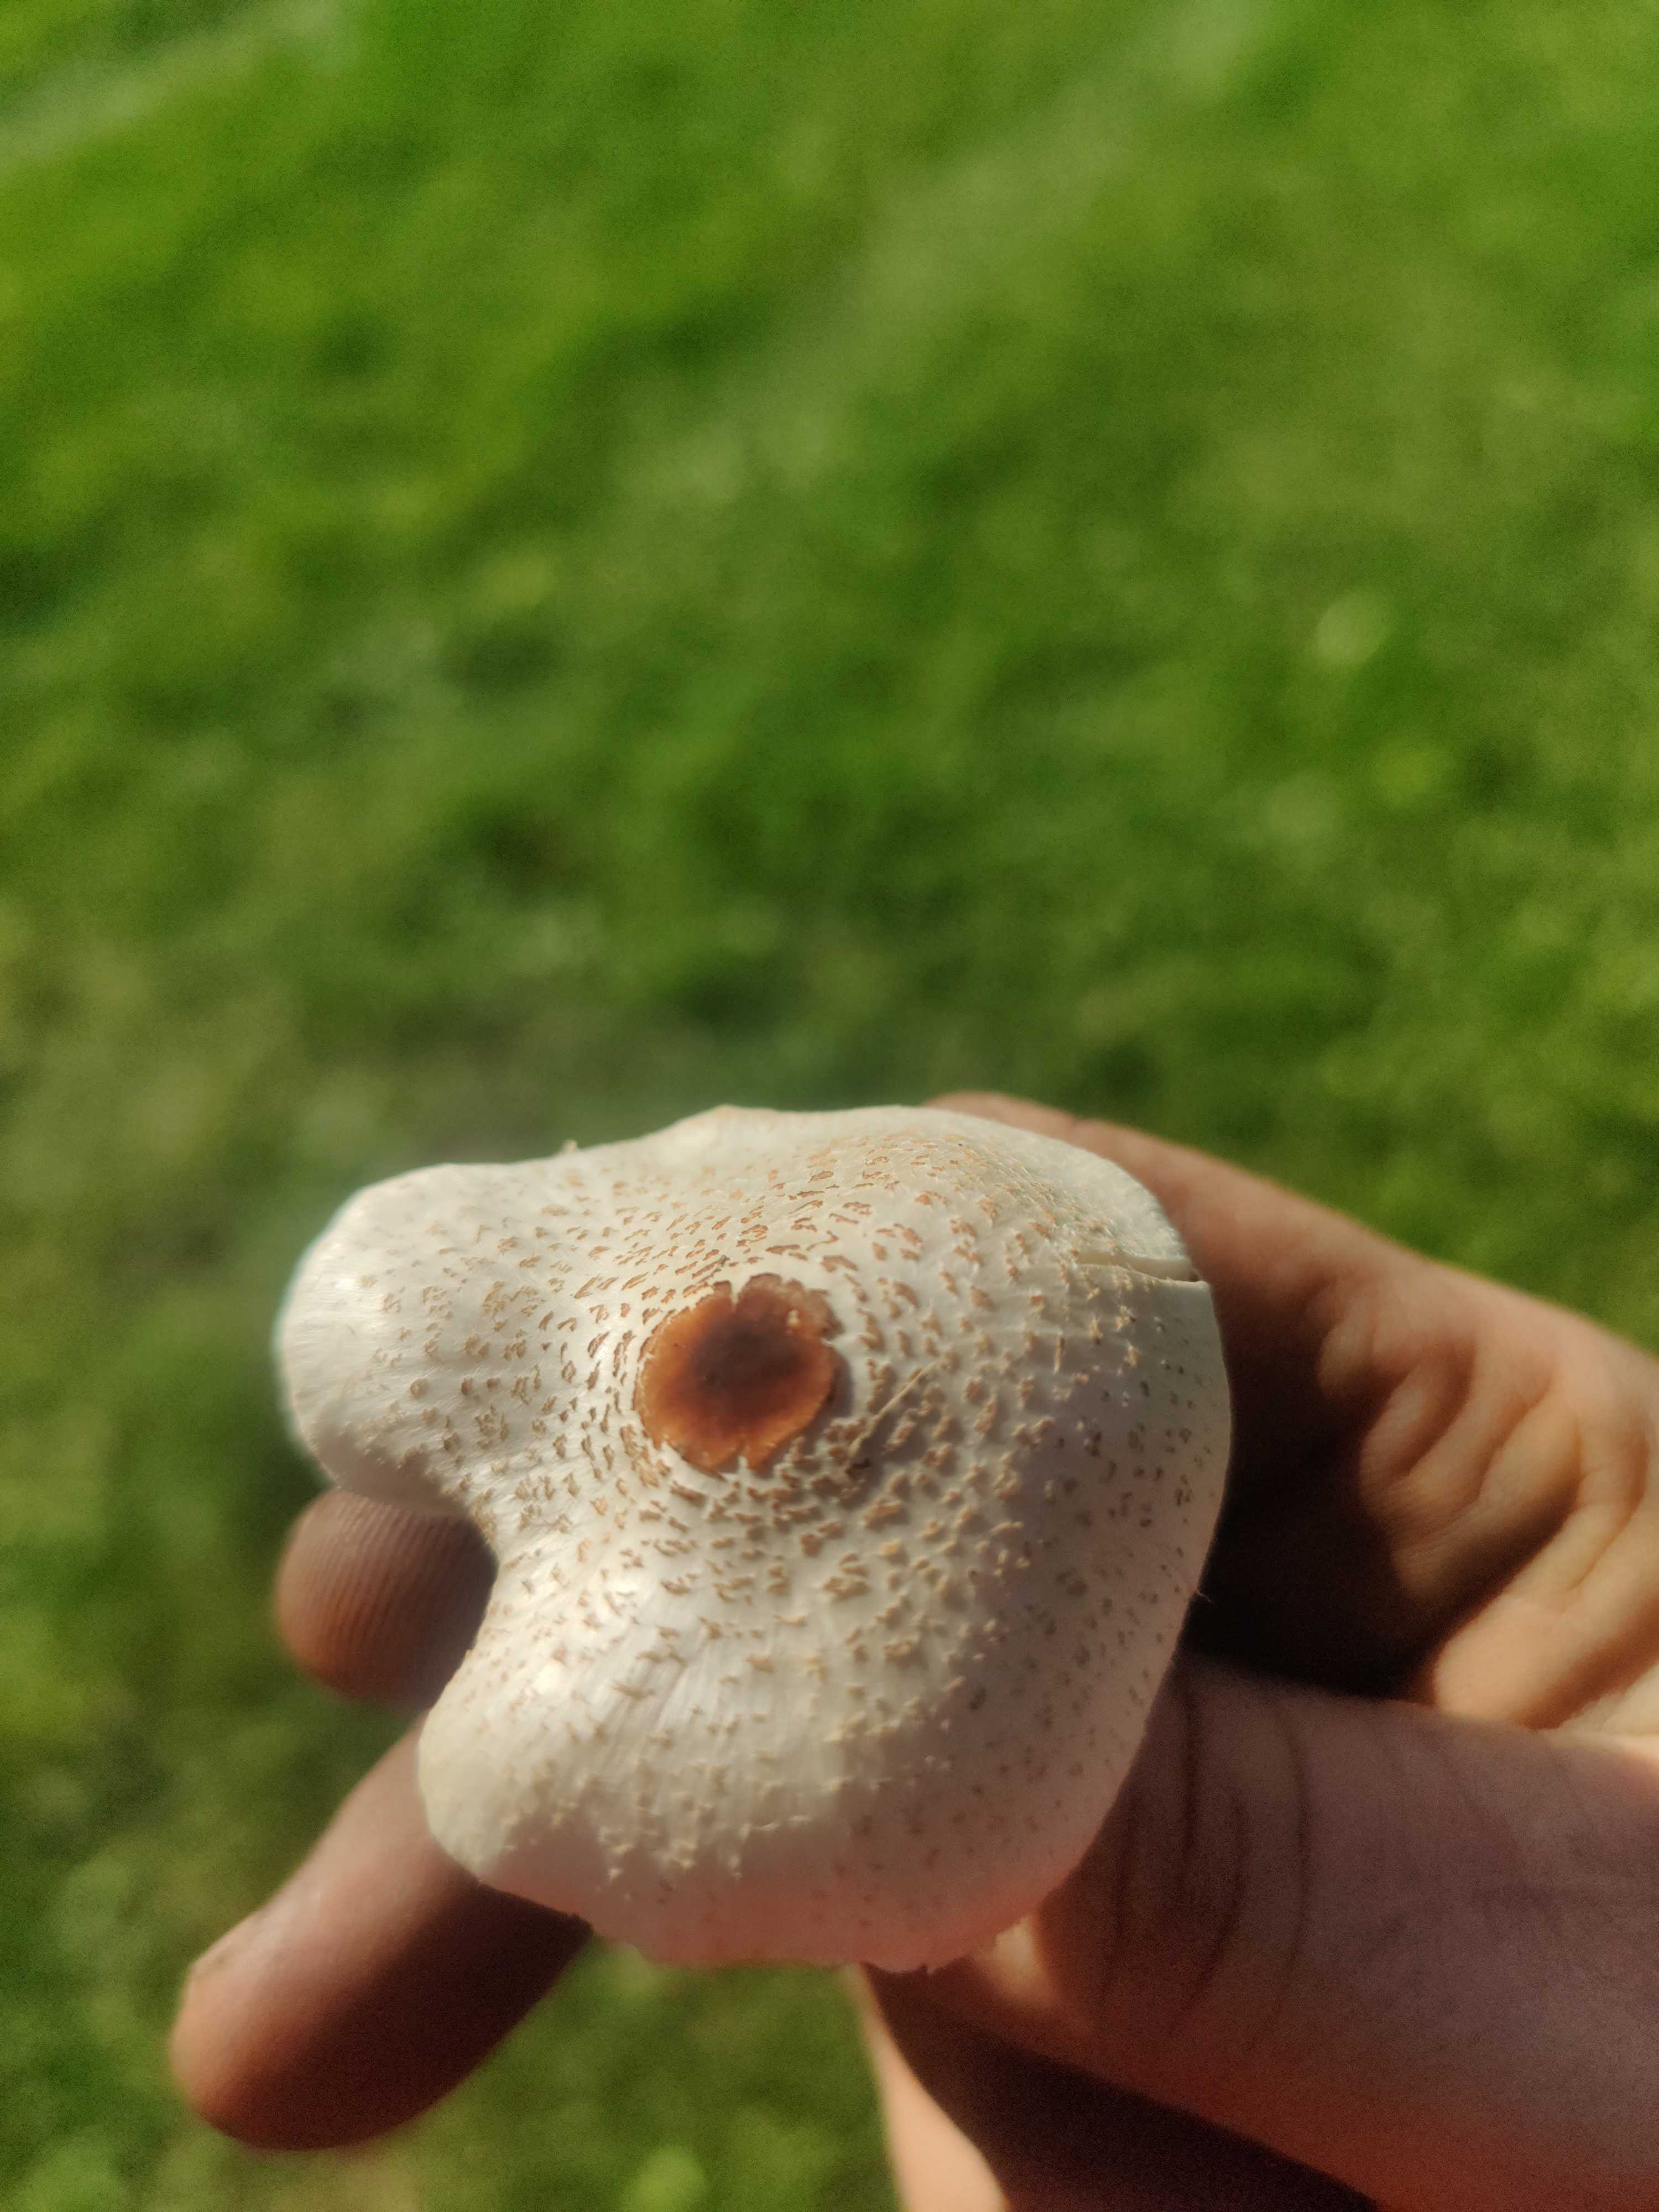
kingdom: Fungi
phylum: Basidiomycota
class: Agaricomycetes
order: Agaricales
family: Agaricaceae
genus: Lepiota
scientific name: Lepiota cristata
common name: stinkende parasolhat
